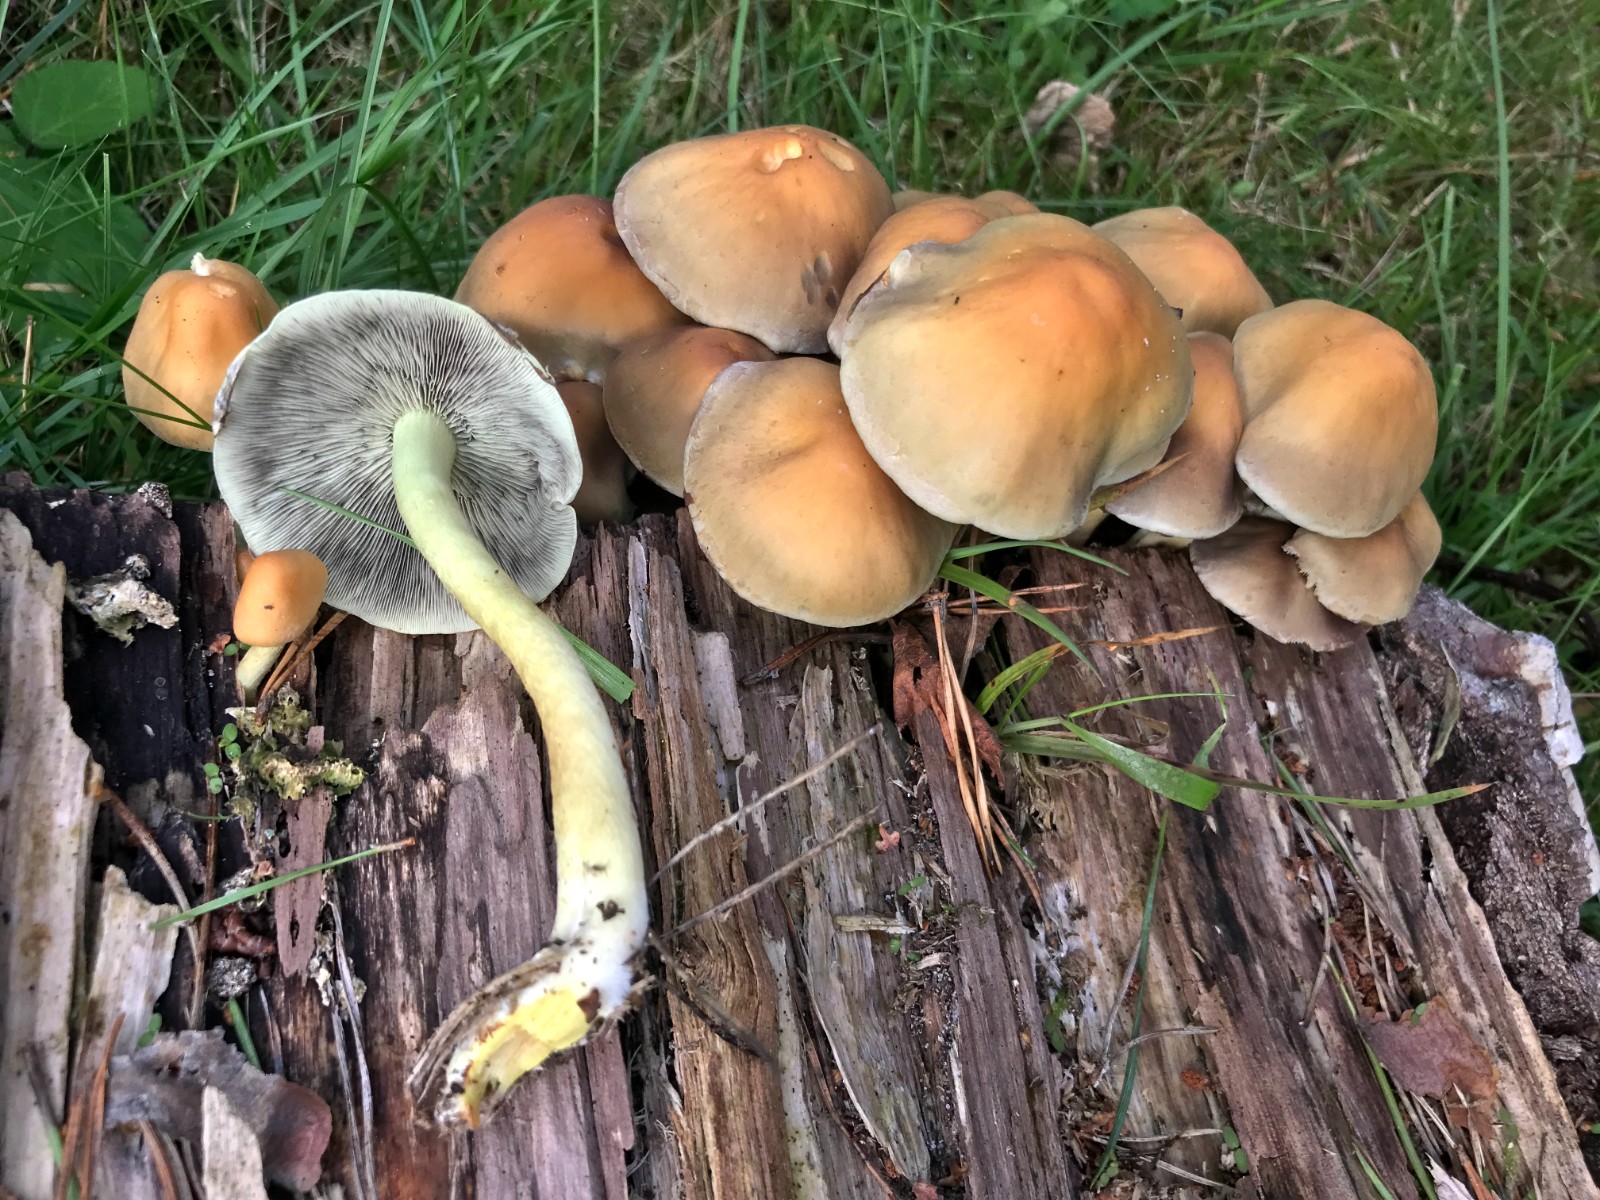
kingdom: Fungi
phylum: Basidiomycota
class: Agaricomycetes
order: Agaricales
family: Strophariaceae
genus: Hypholoma
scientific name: Hypholoma fasciculare
